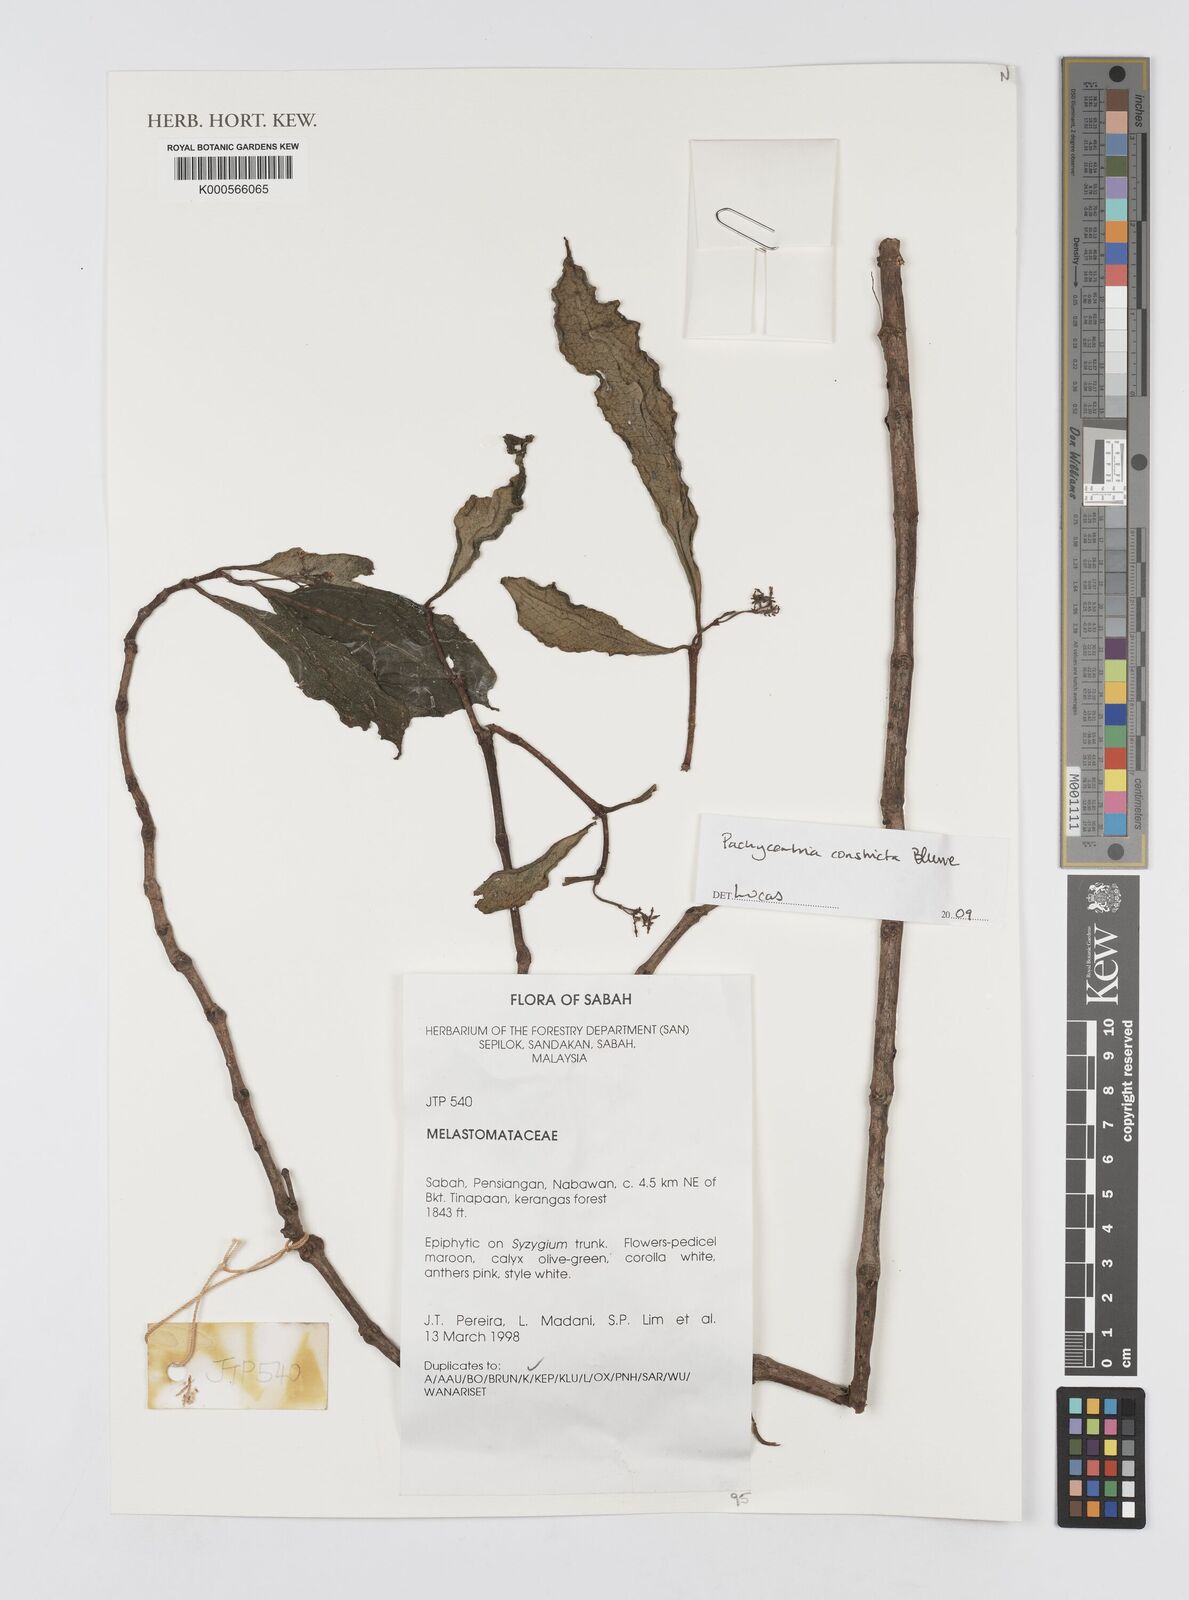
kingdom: Plantae
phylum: Tracheophyta
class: Magnoliopsida
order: Myrtales
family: Melastomataceae
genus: Pachycentria
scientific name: Pachycentria constricta
